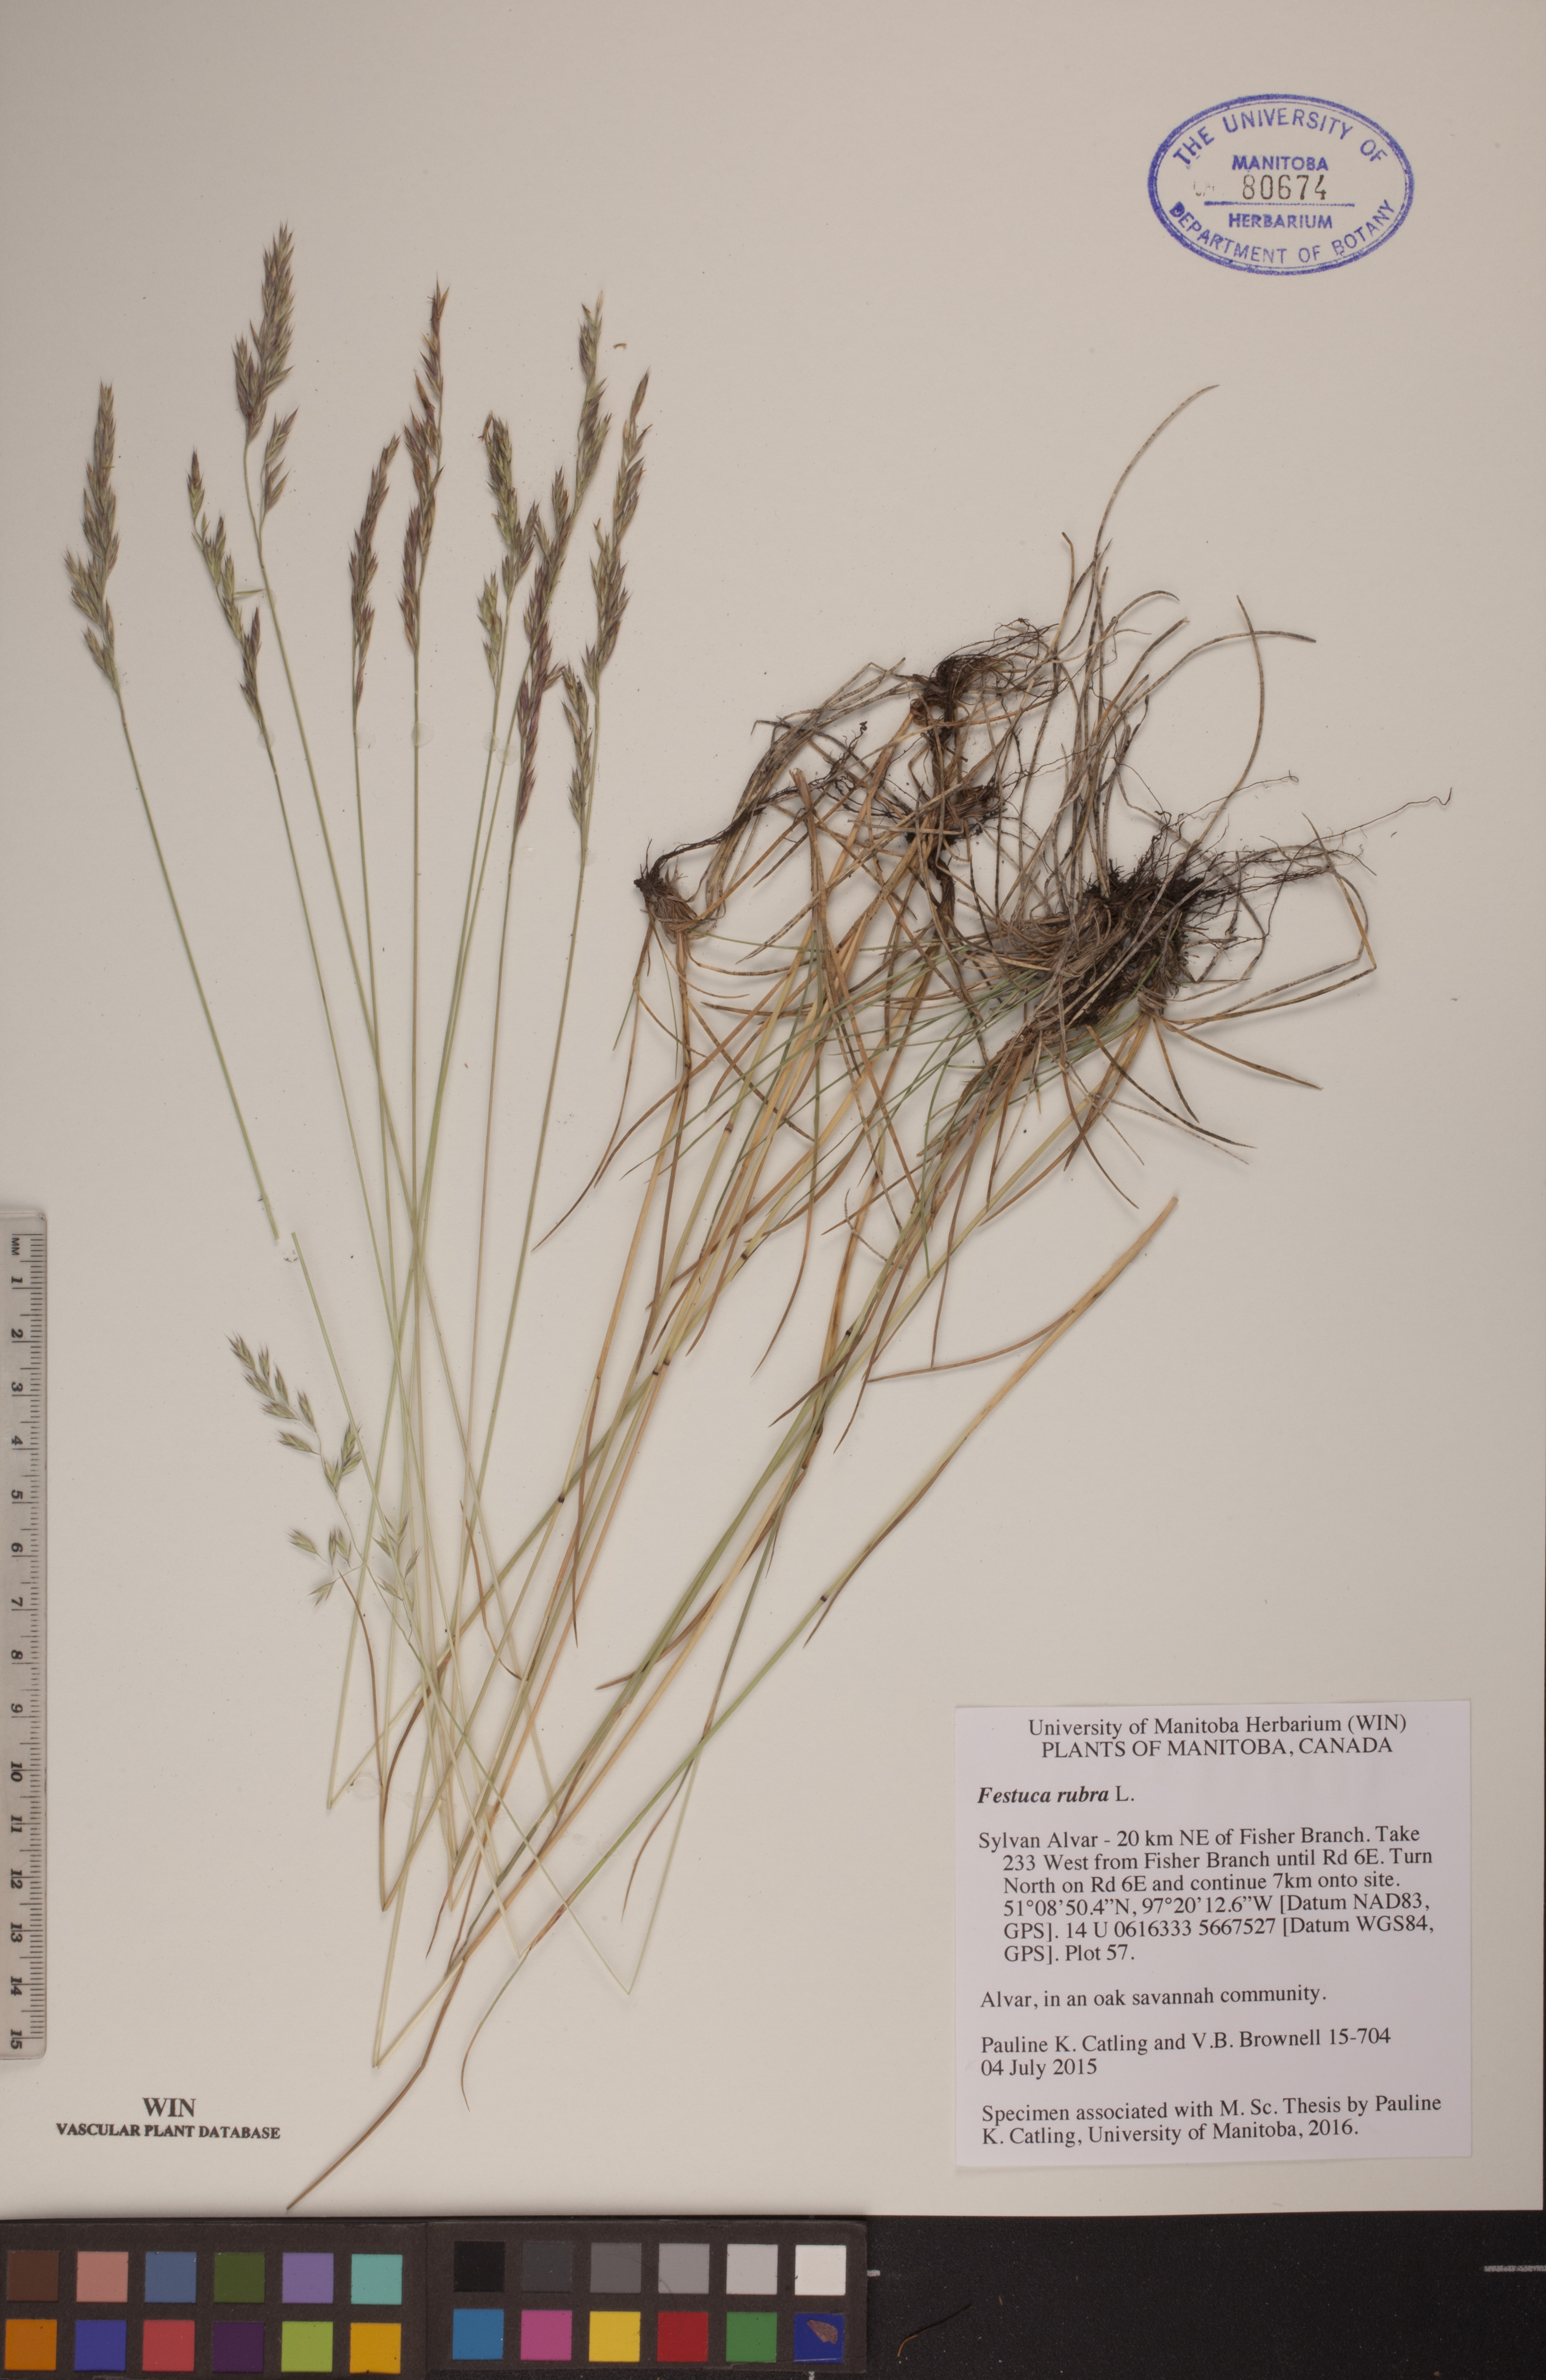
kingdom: Plantae
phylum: Tracheophyta
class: Liliopsida
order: Poales
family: Poaceae
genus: Festuca
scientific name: Festuca rubra
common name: Red fescue
